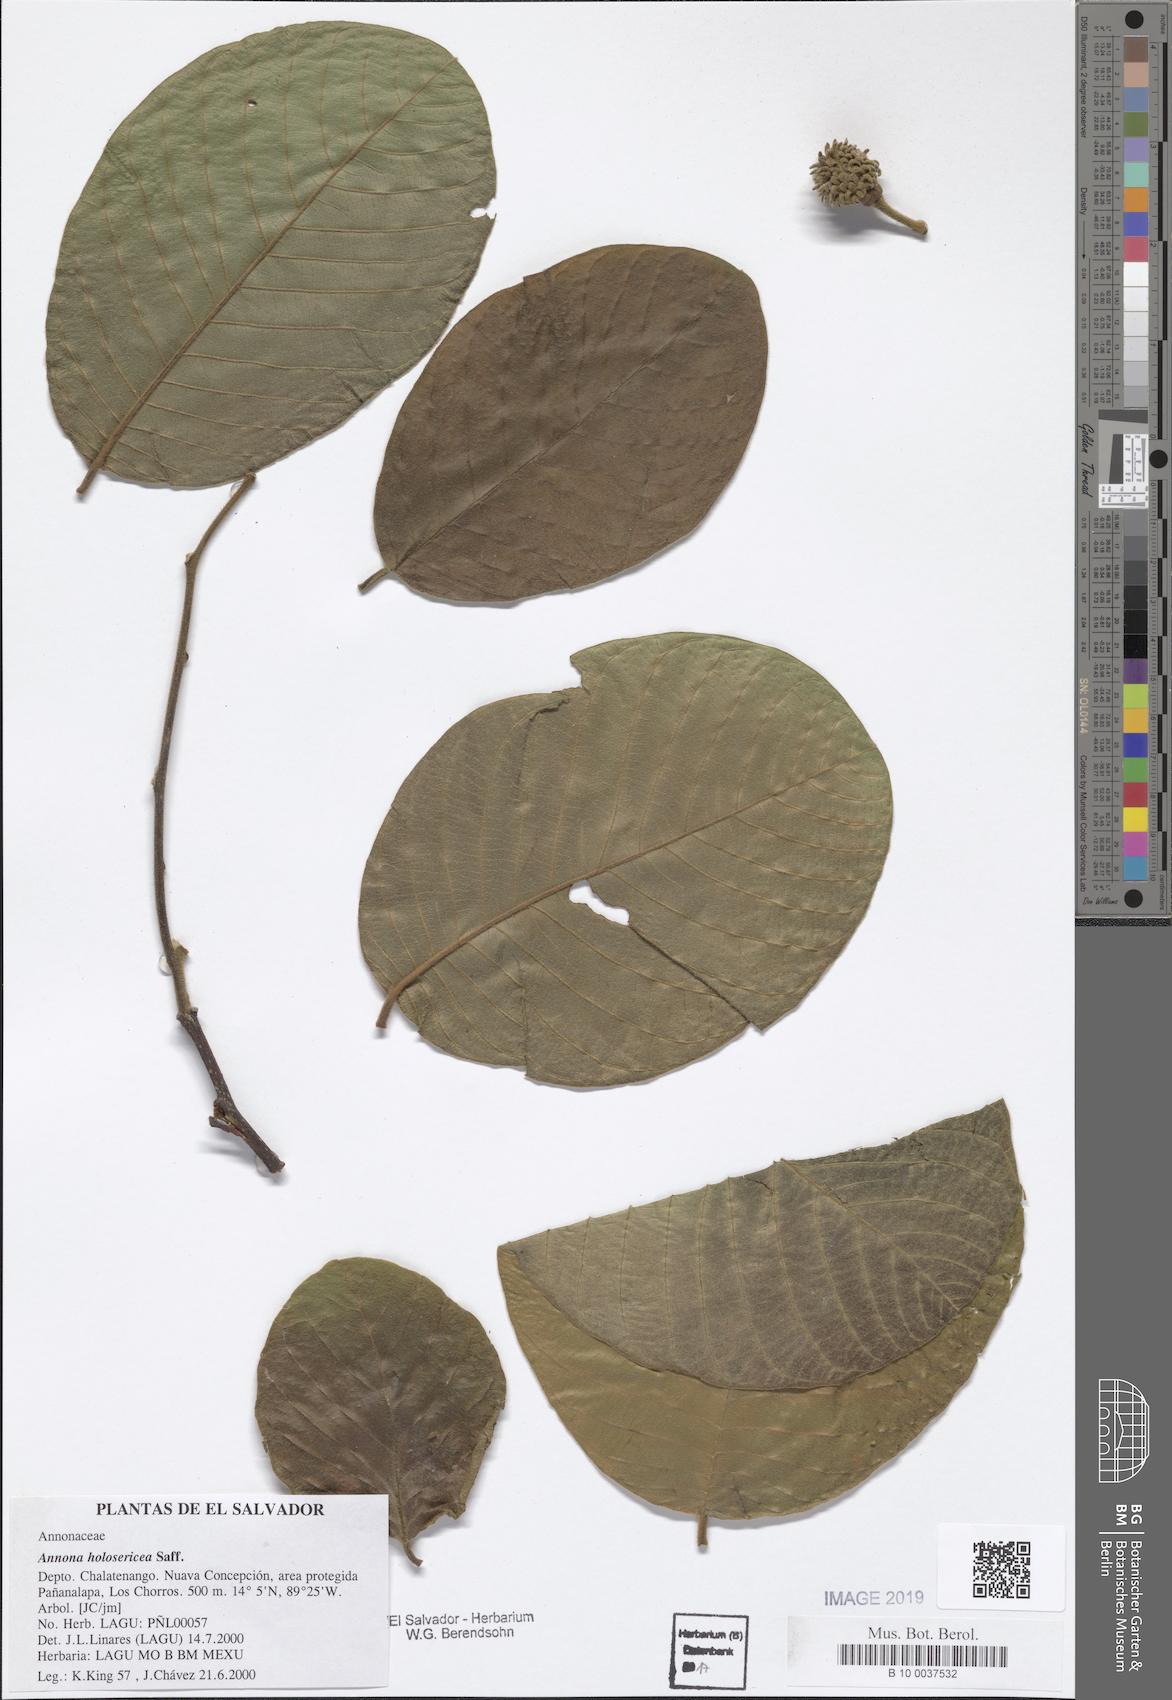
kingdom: Plantae
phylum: Tracheophyta
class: Magnoliopsida
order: Magnoliales
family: Annonaceae
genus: Annona
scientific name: Annona holosericea
